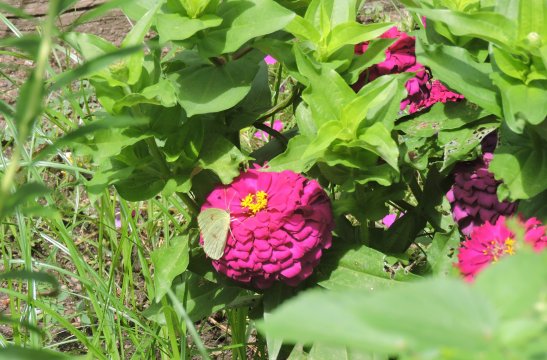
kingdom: Animalia
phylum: Arthropoda
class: Insecta
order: Lepidoptera
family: Pieridae
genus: Phoebis
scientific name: Phoebis sennae
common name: Cloudless Sulphur
